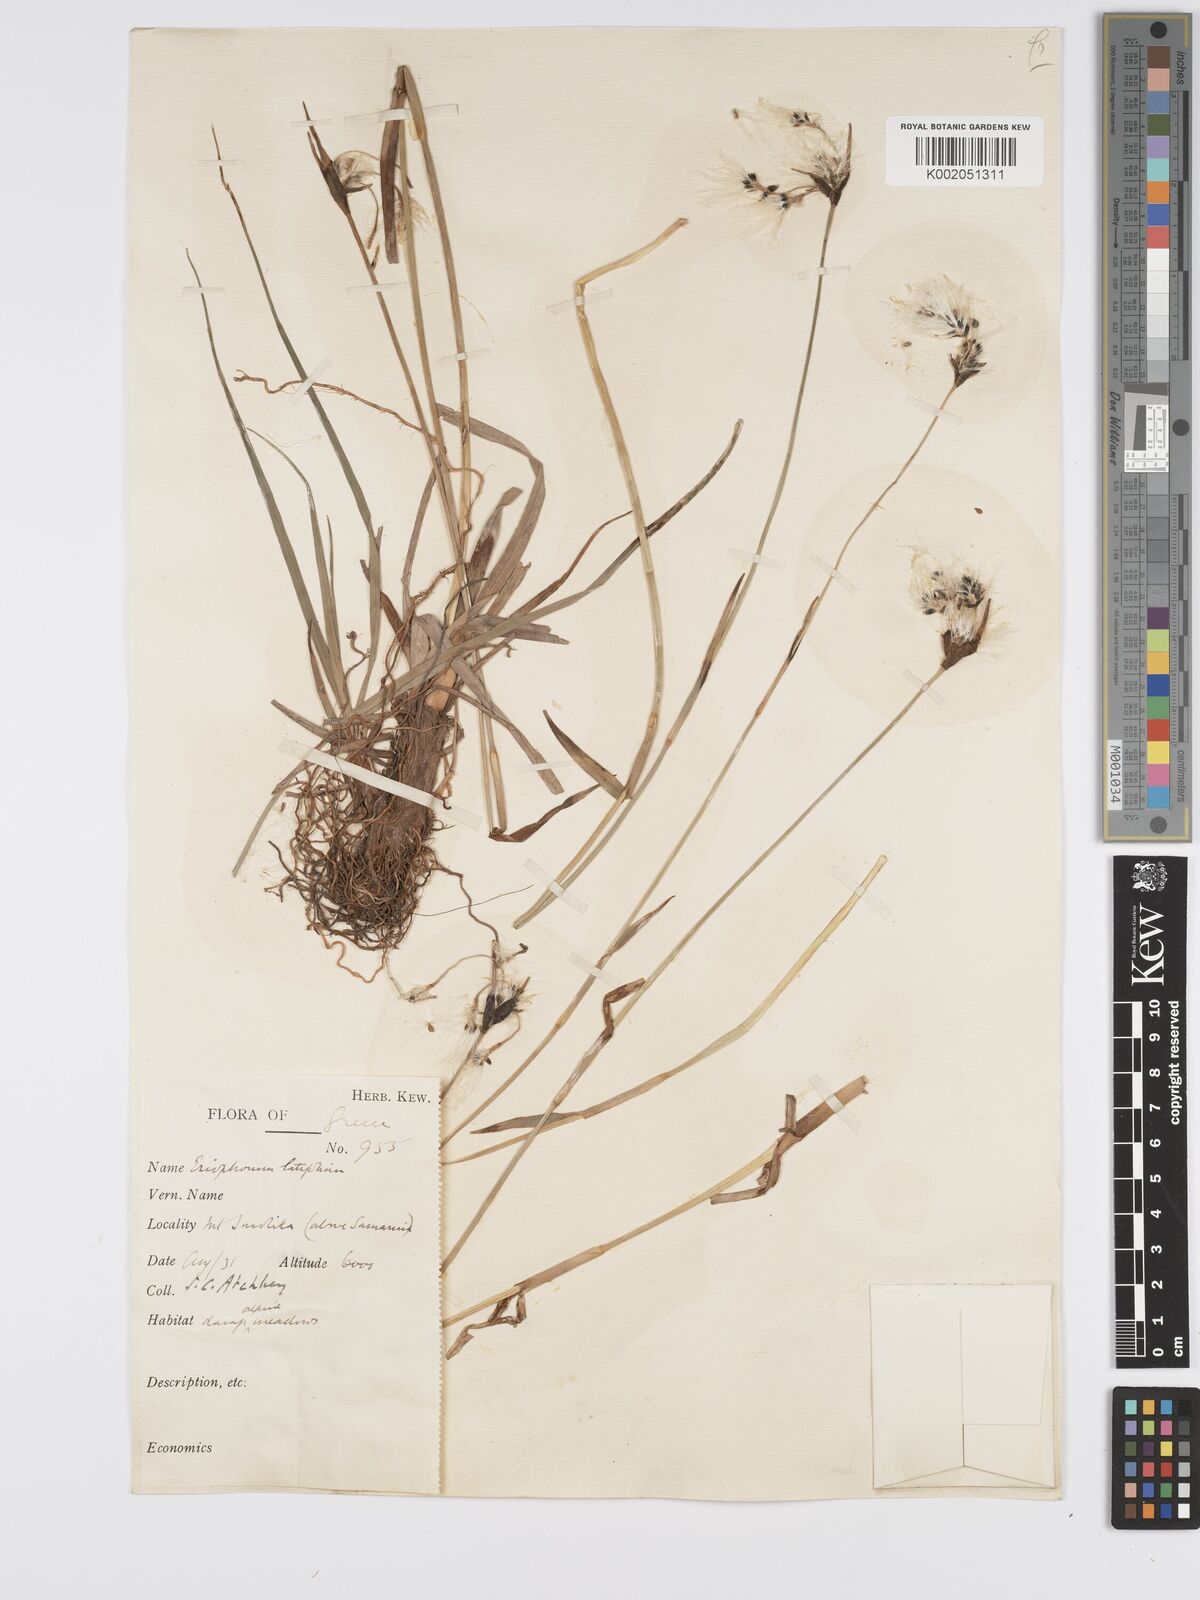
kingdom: Plantae
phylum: Tracheophyta
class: Liliopsida
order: Poales
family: Cyperaceae
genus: Eriophorum
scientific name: Eriophorum latifolium
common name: Broad-leaved cottongrass
